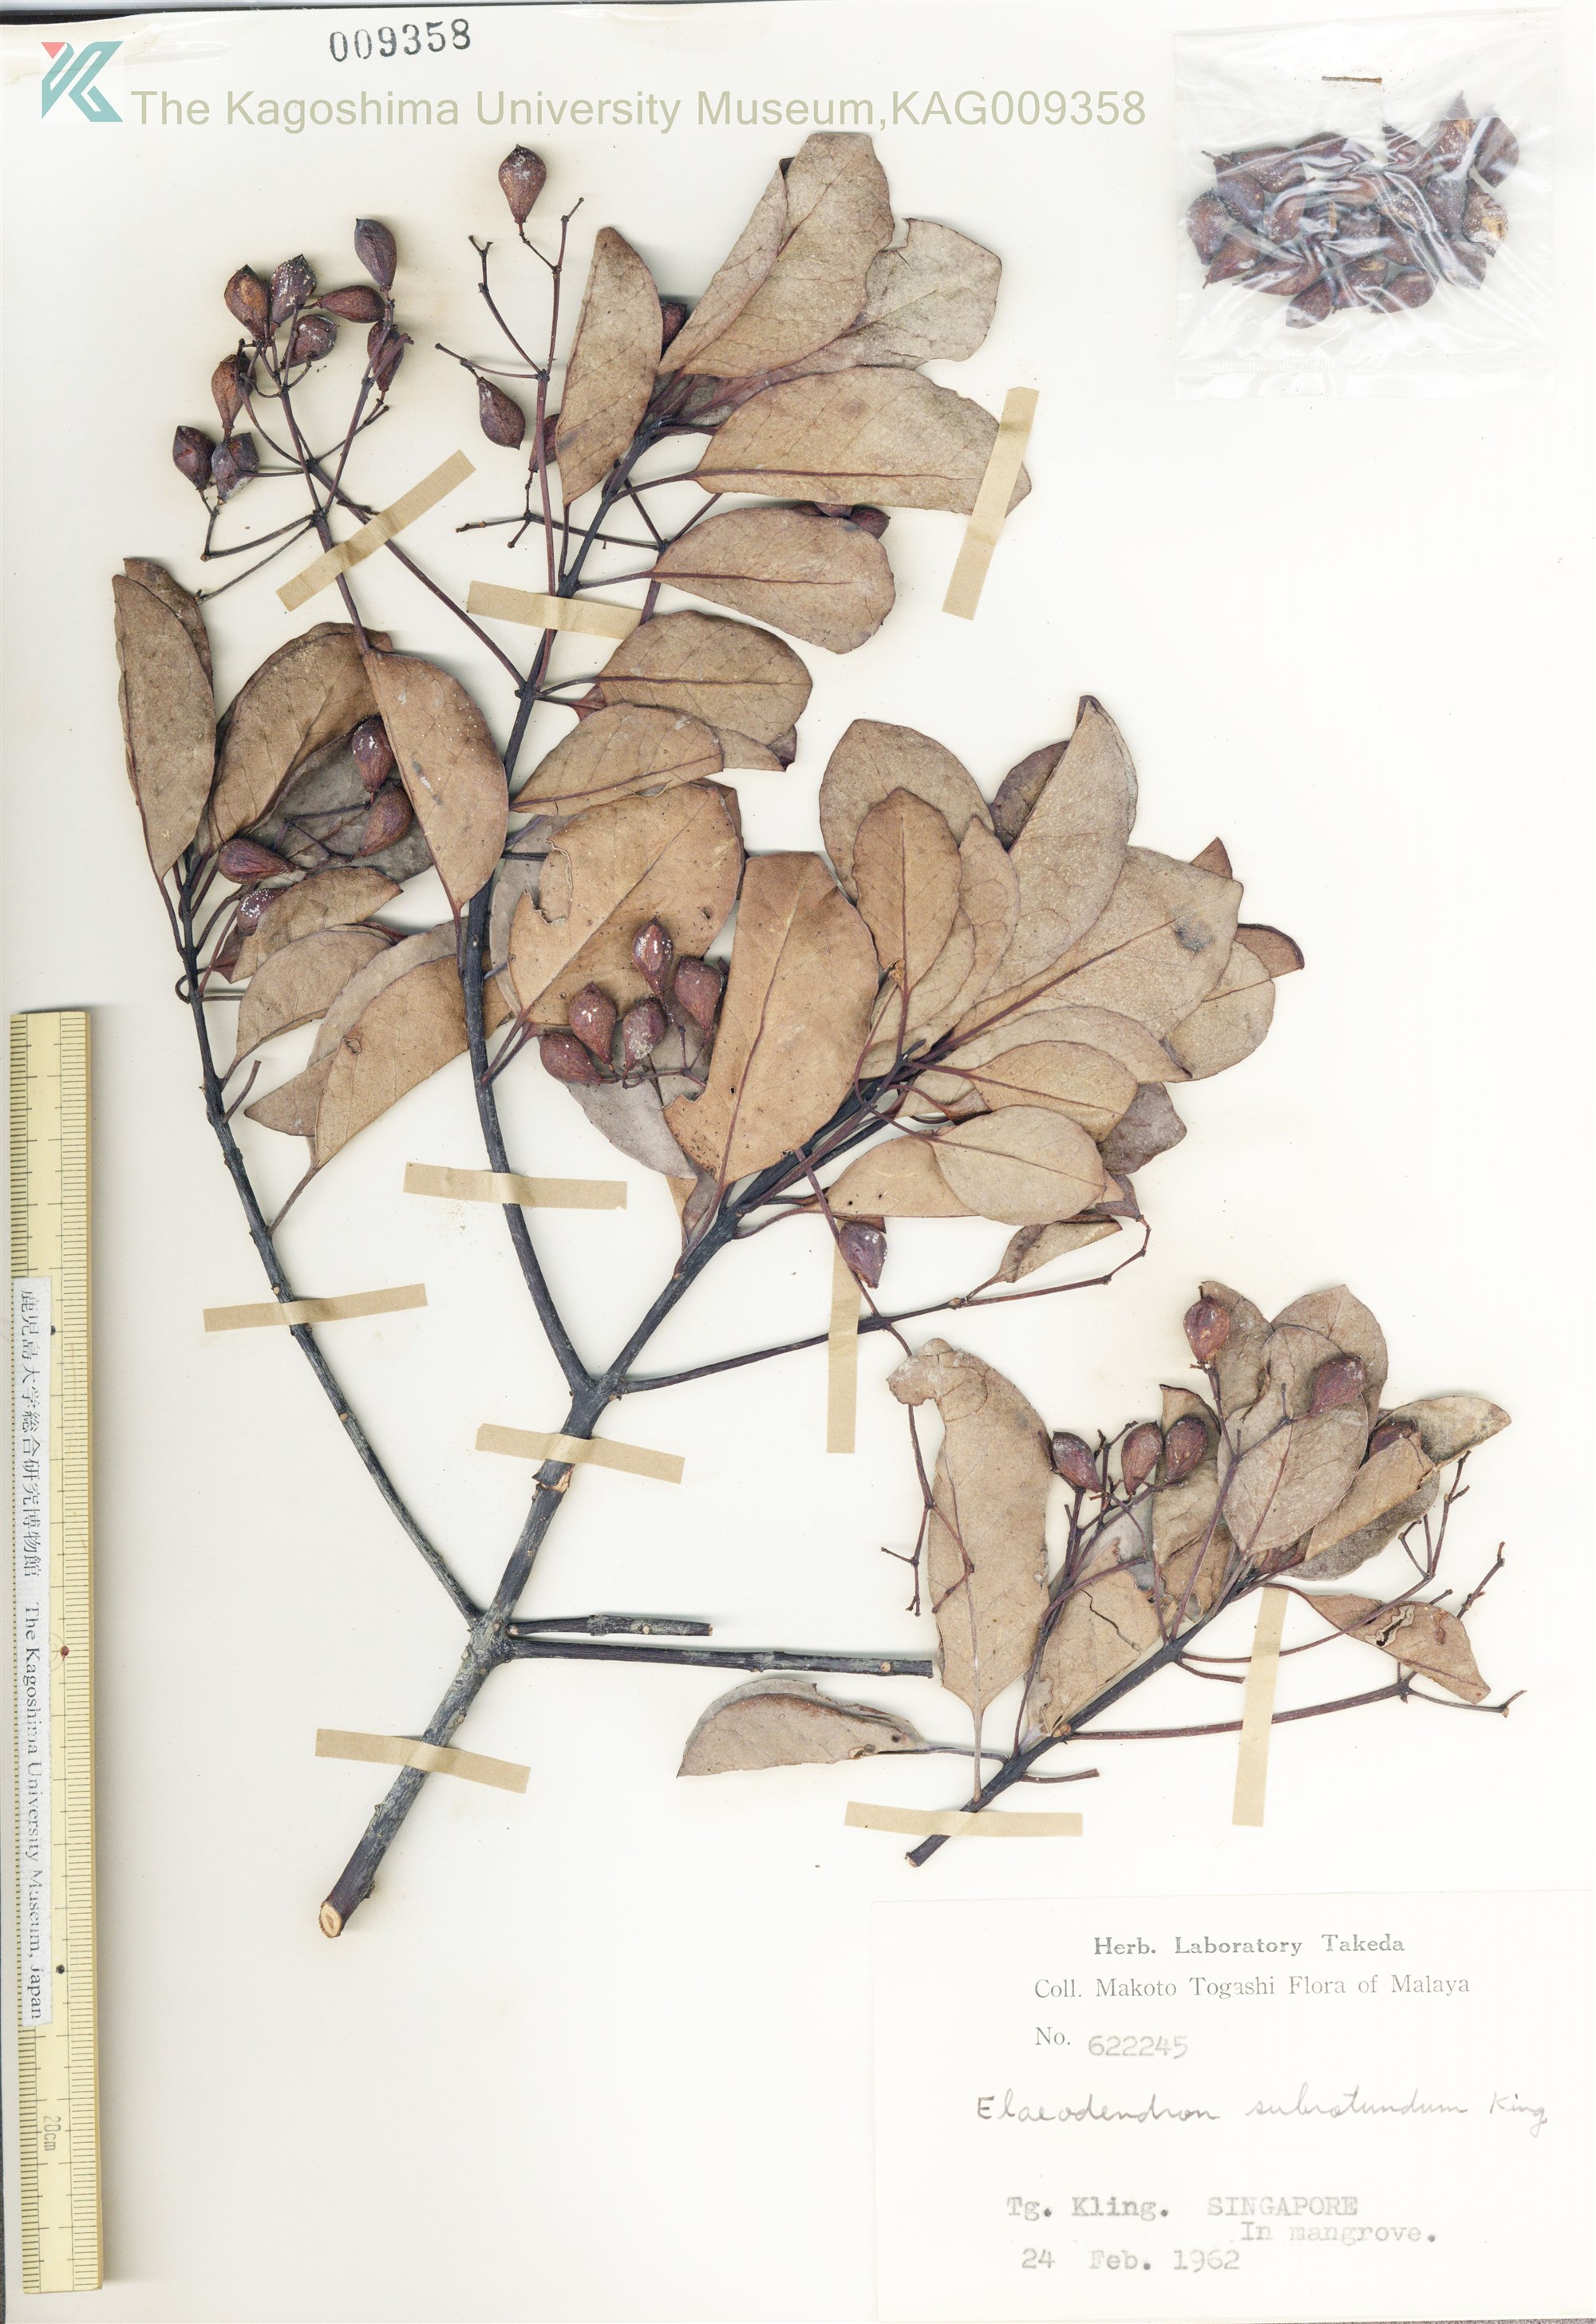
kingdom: Plantae
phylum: Tracheophyta
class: Magnoliopsida
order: Celastrales
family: Celastraceae
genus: Elaeodendron
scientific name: Elaeodendron
